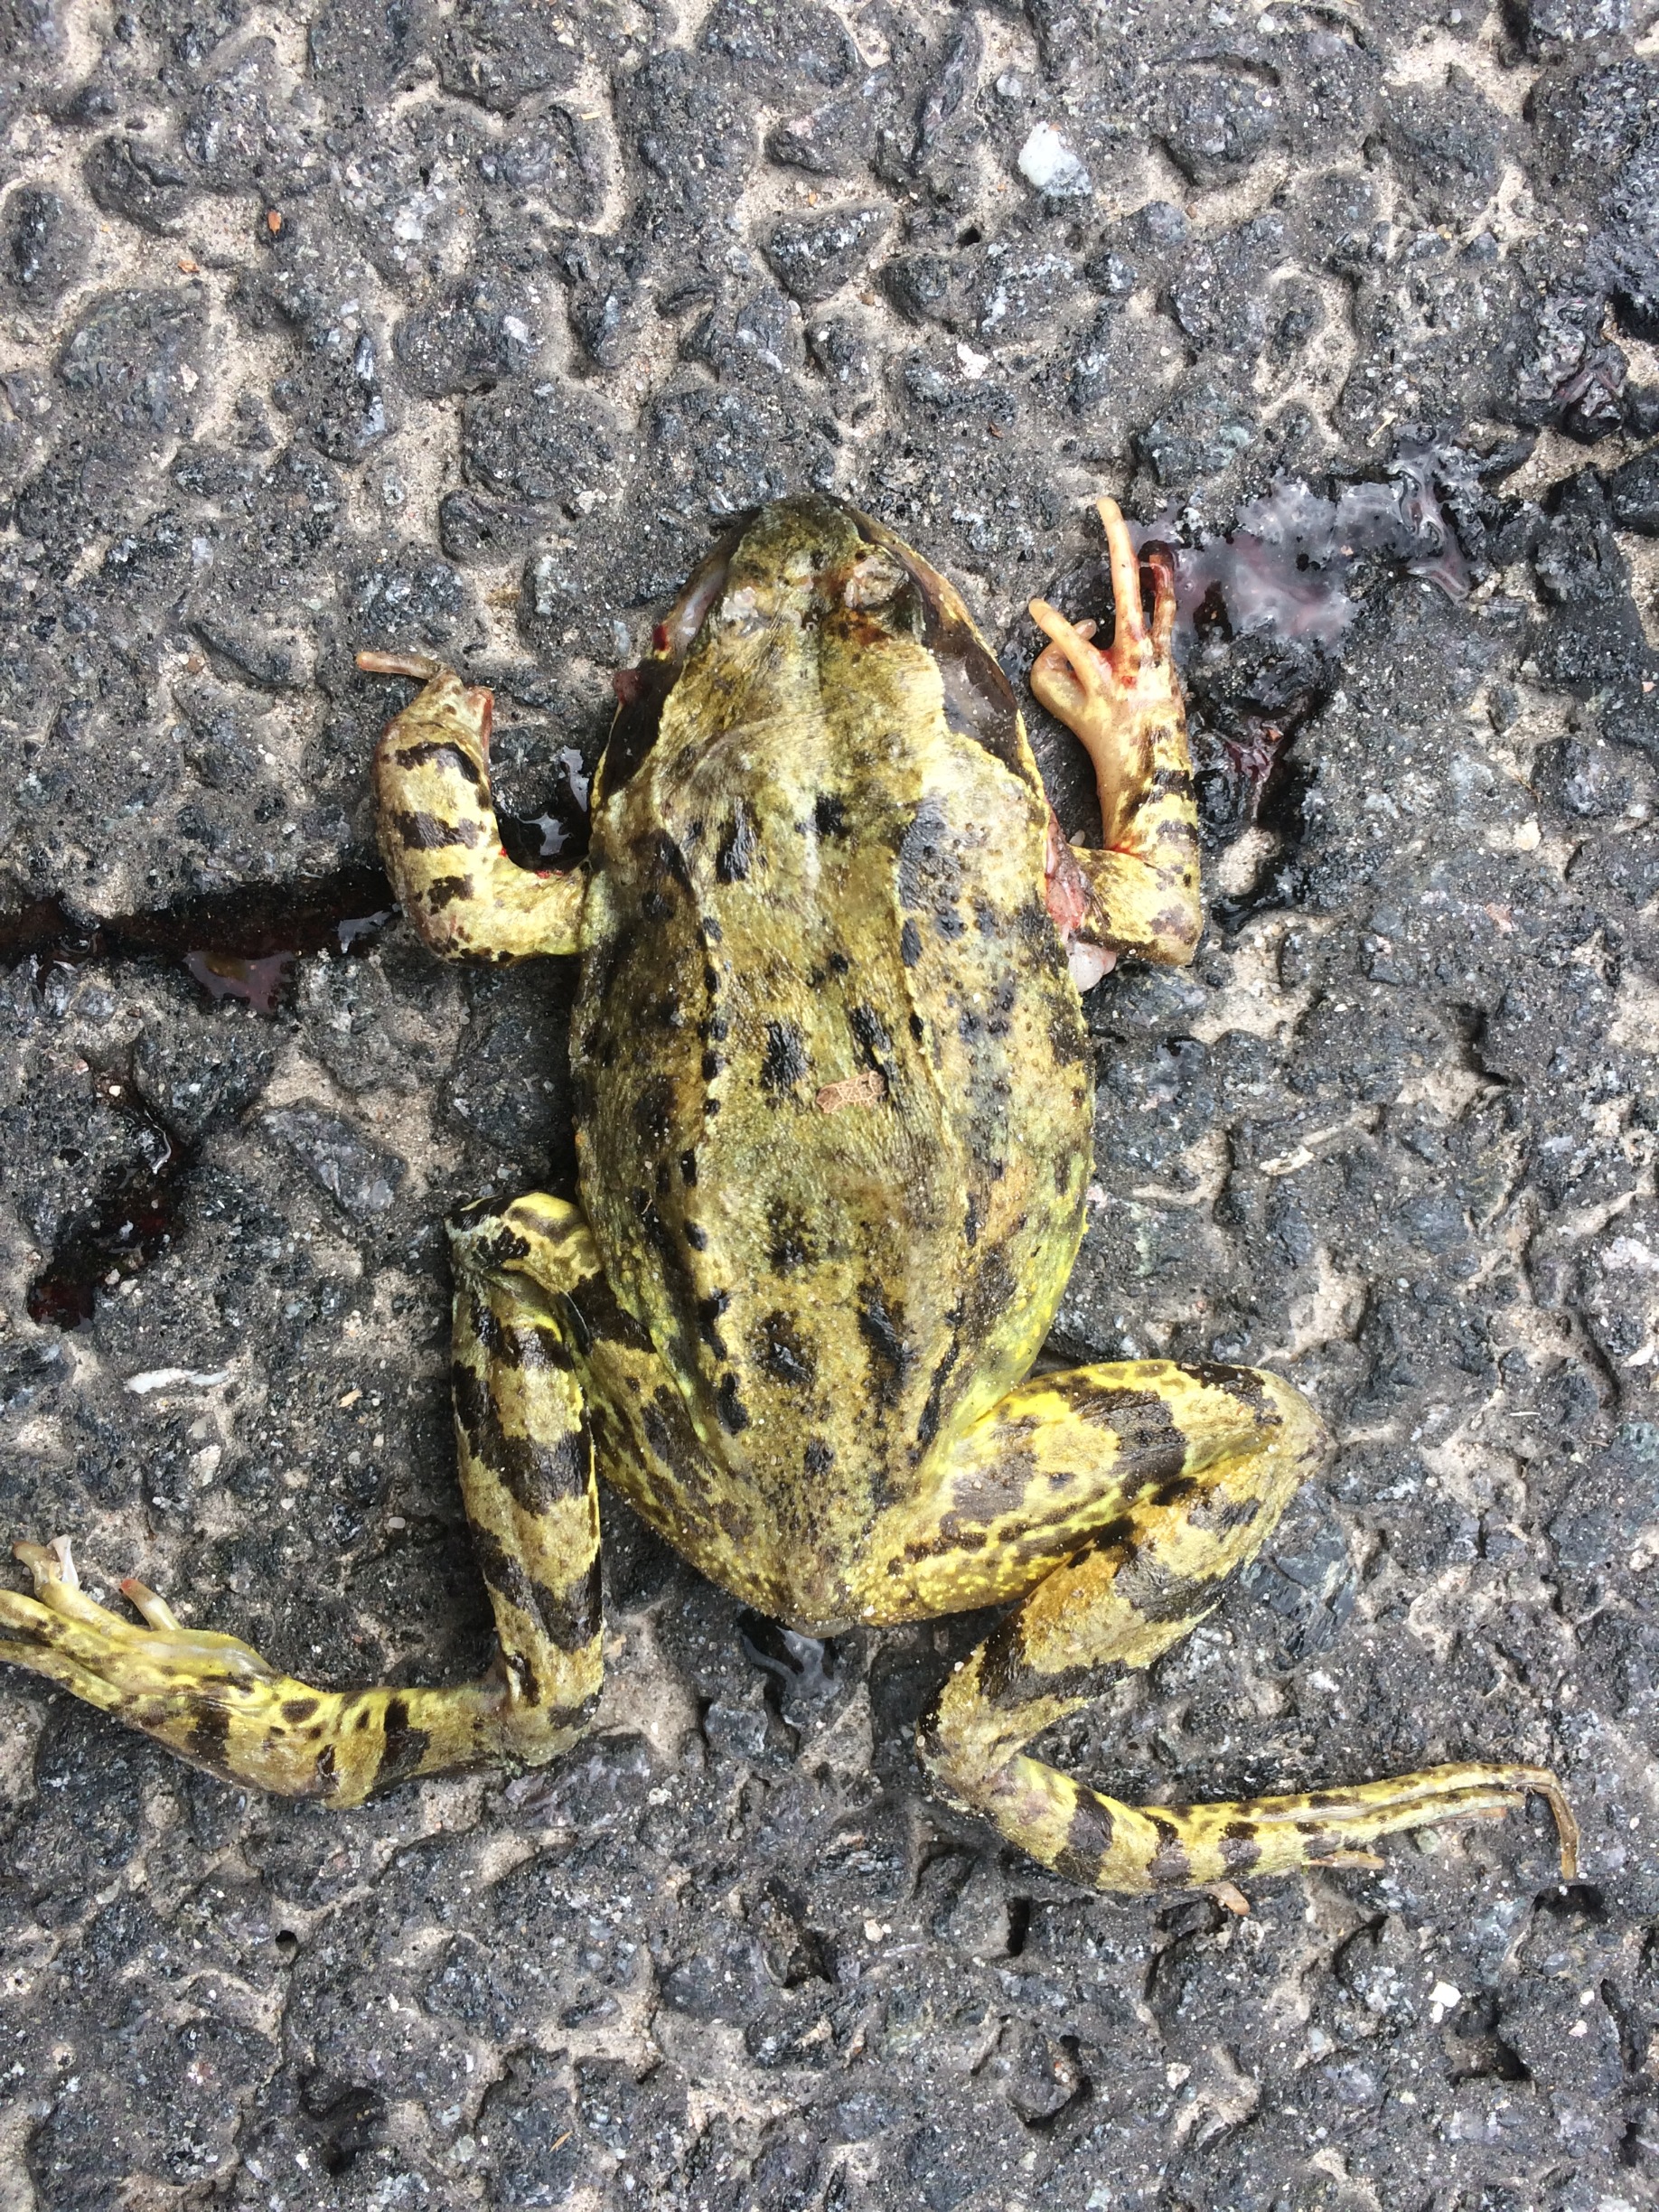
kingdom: Animalia
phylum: Chordata
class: Amphibia
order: Anura
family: Ranidae
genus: Rana
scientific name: Rana temporaria
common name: Butsnudet frø
